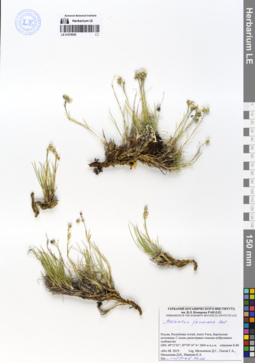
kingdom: Plantae
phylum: Tracheophyta
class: Magnoliopsida
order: Caryophyllales
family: Caryophyllaceae
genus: Eremogone
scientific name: Eremogone formosa
